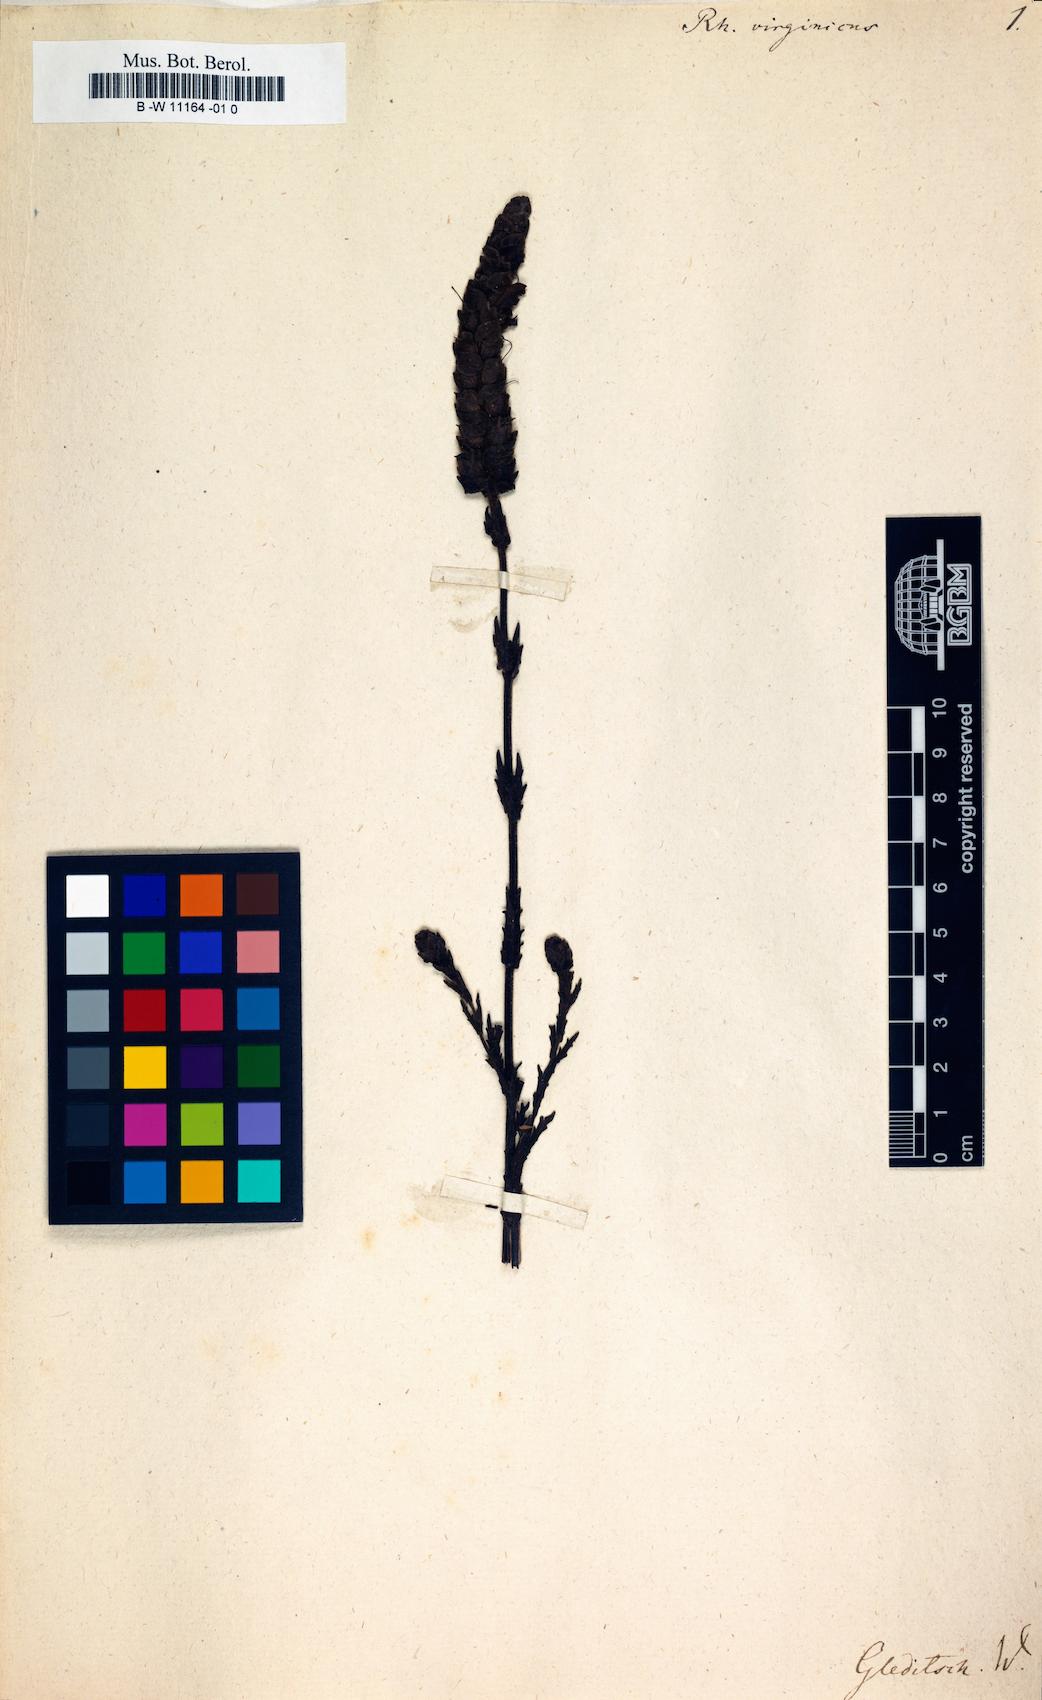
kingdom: Plantae
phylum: Tracheophyta
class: Magnoliopsida
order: Lamiales
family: Orobanchaceae
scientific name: Orobanchaceae
